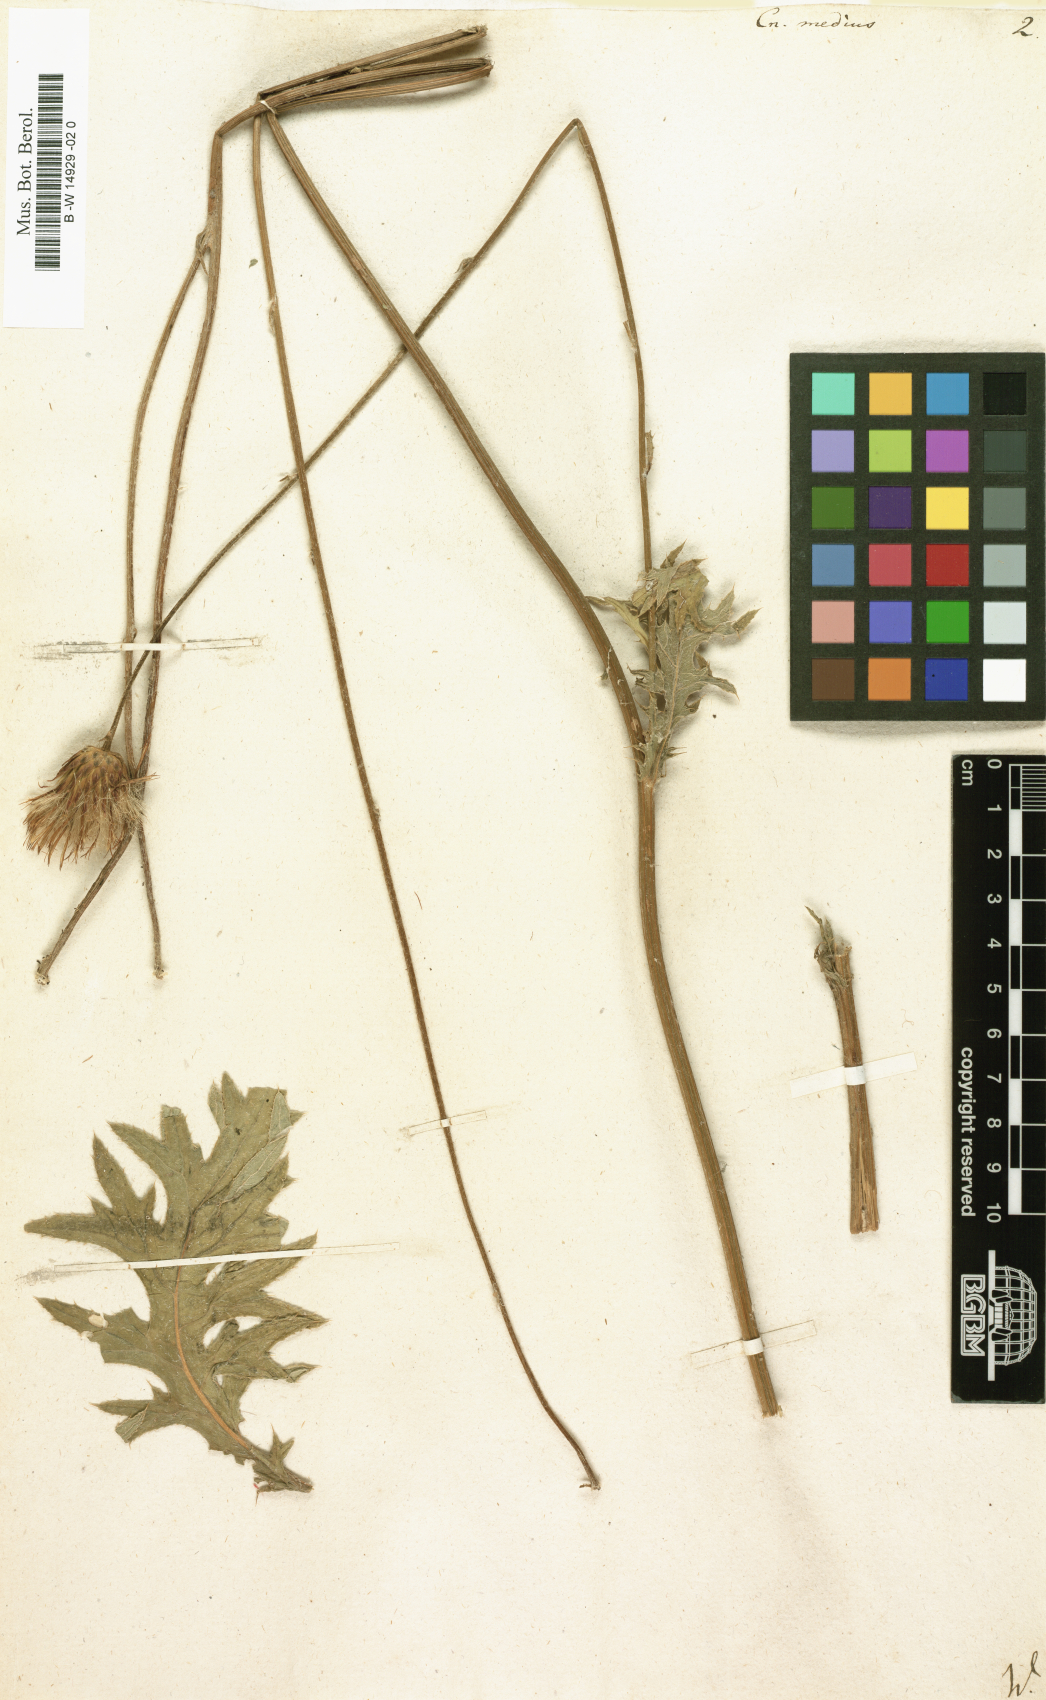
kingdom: Plantae
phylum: Tracheophyta
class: Magnoliopsida
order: Asterales
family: Asteraceae
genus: Centaurea
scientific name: Centaurea Cnicus medius
